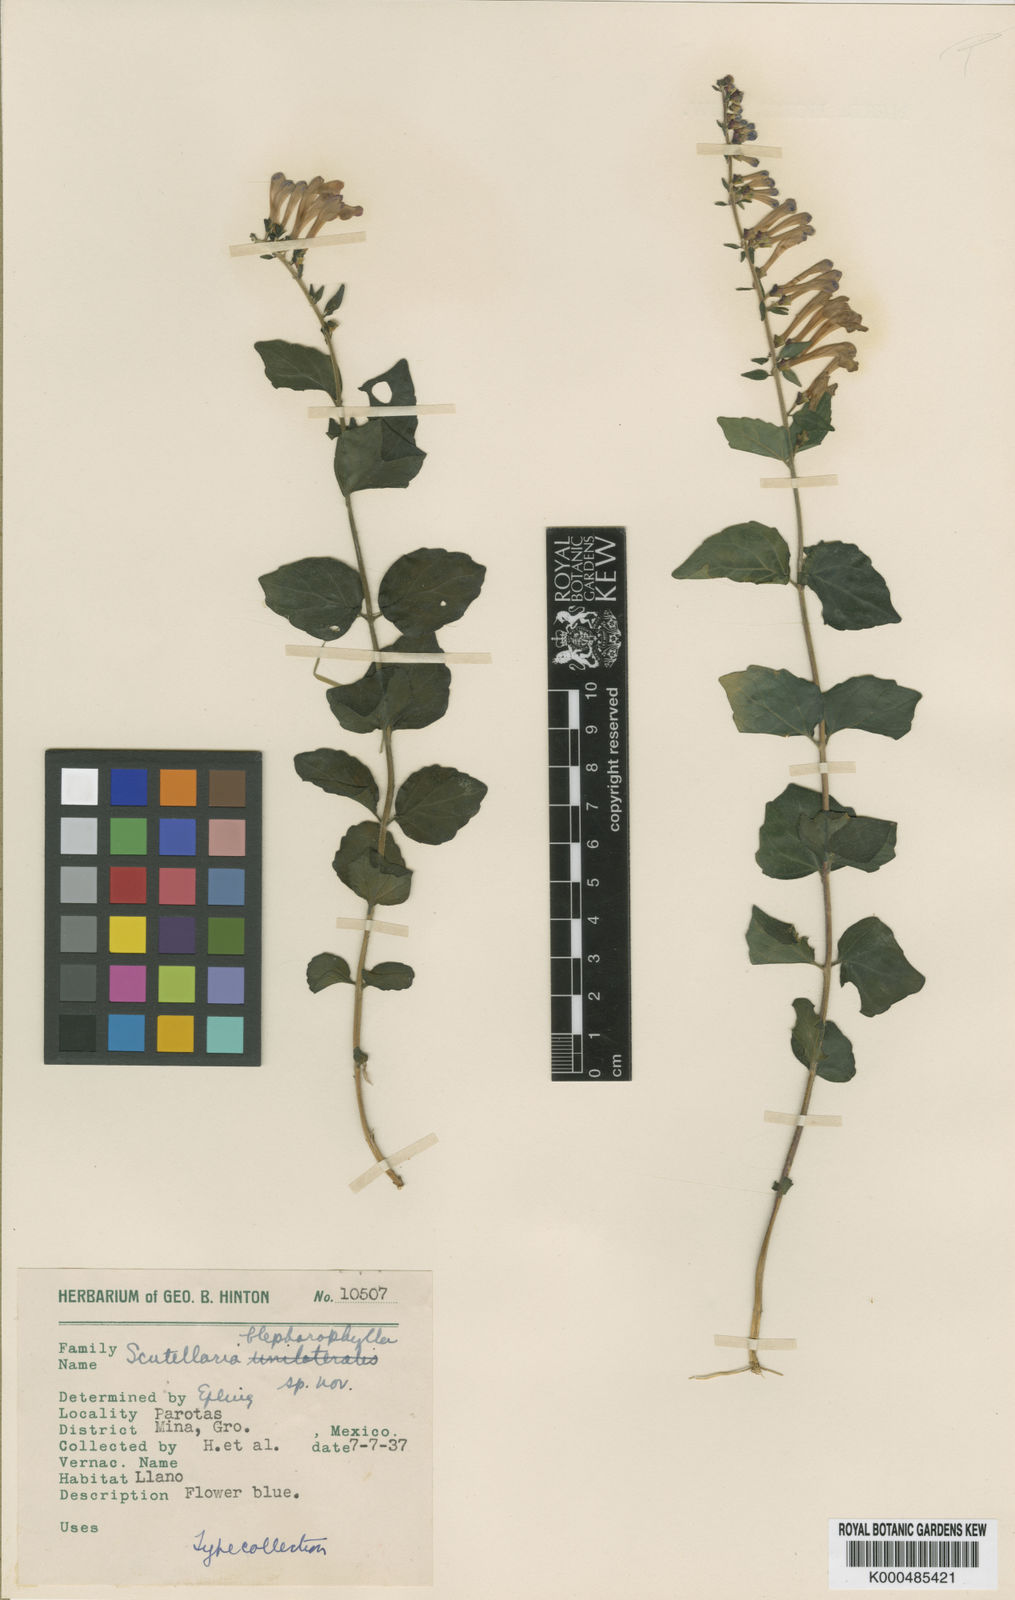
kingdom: Plantae
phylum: Tracheophyta
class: Magnoliopsida
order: Lamiales
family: Lamiaceae
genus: Scutellaria
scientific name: Scutellaria blepharophylla
